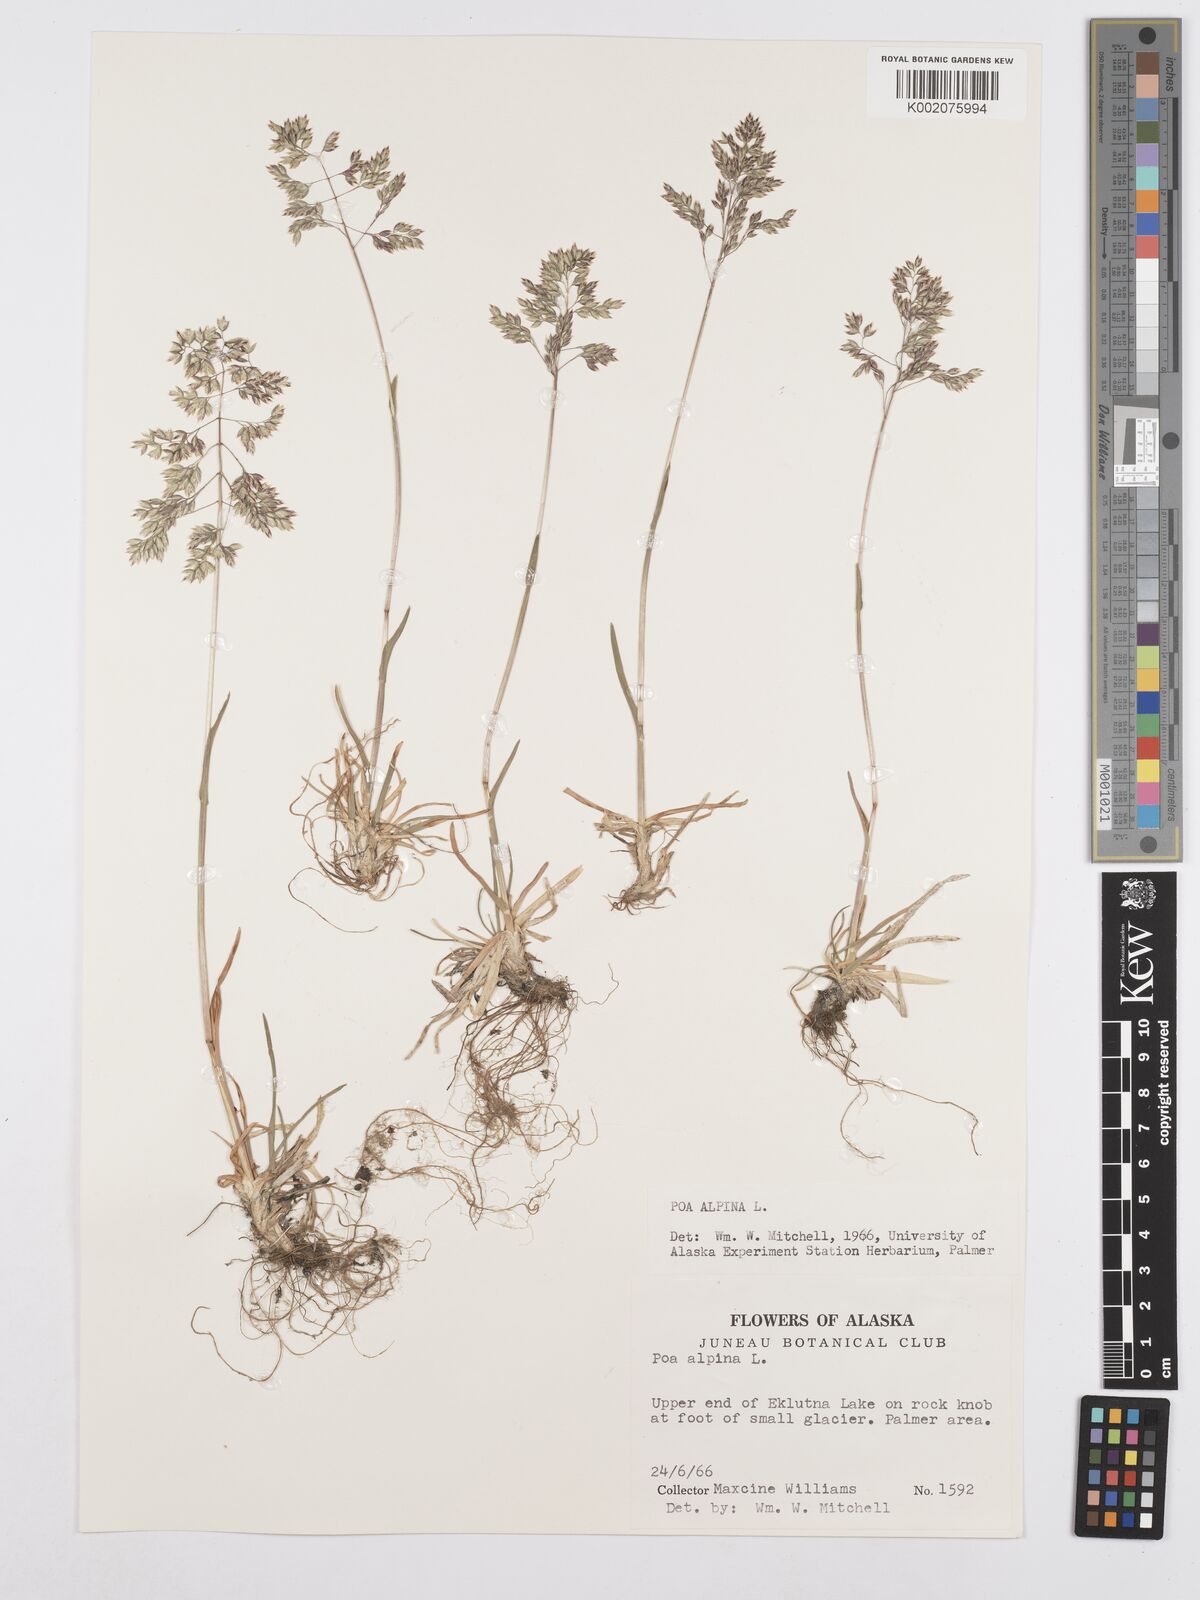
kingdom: Plantae
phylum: Tracheophyta
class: Liliopsida
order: Poales
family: Poaceae
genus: Poa
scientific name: Poa alpina
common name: Alpine bluegrass
